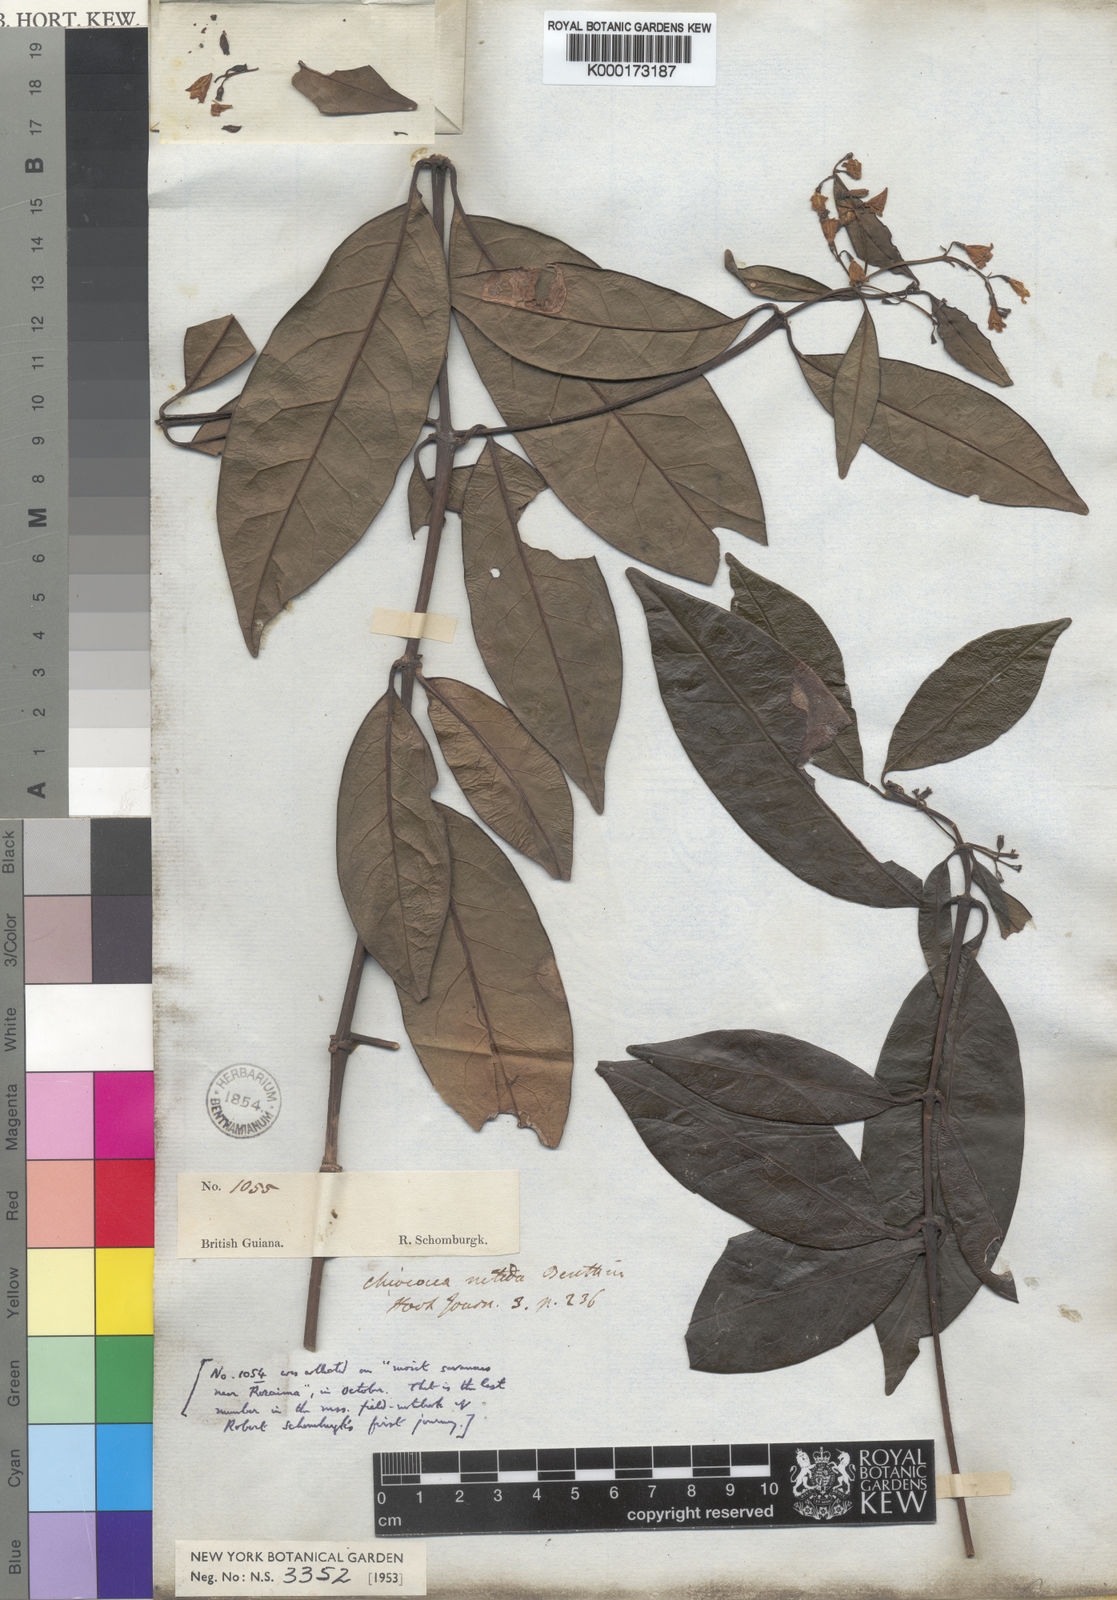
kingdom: Plantae
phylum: Tracheophyta
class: Magnoliopsida
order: Gentianales
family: Rubiaceae
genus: Chiococca
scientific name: Chiococca nitida
